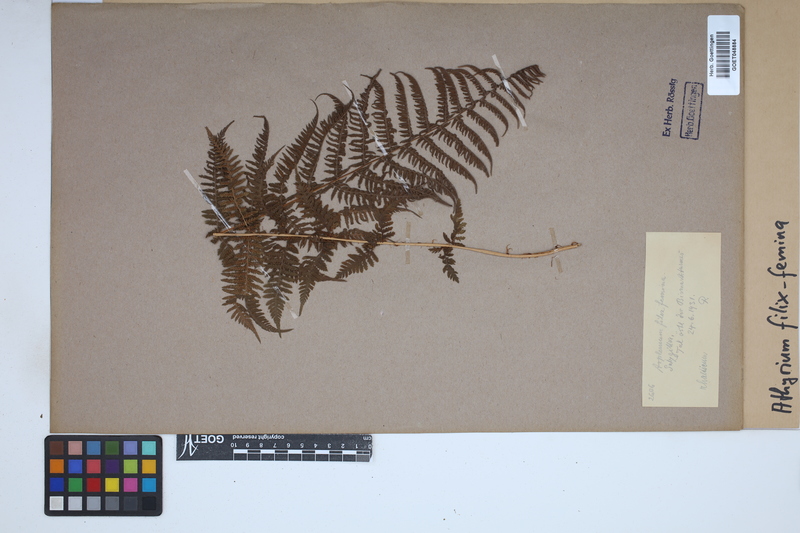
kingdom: Plantae
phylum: Tracheophyta
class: Polypodiopsida
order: Polypodiales
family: Athyriaceae
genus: Athyrium
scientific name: Athyrium filix-femina
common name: Lady fern
